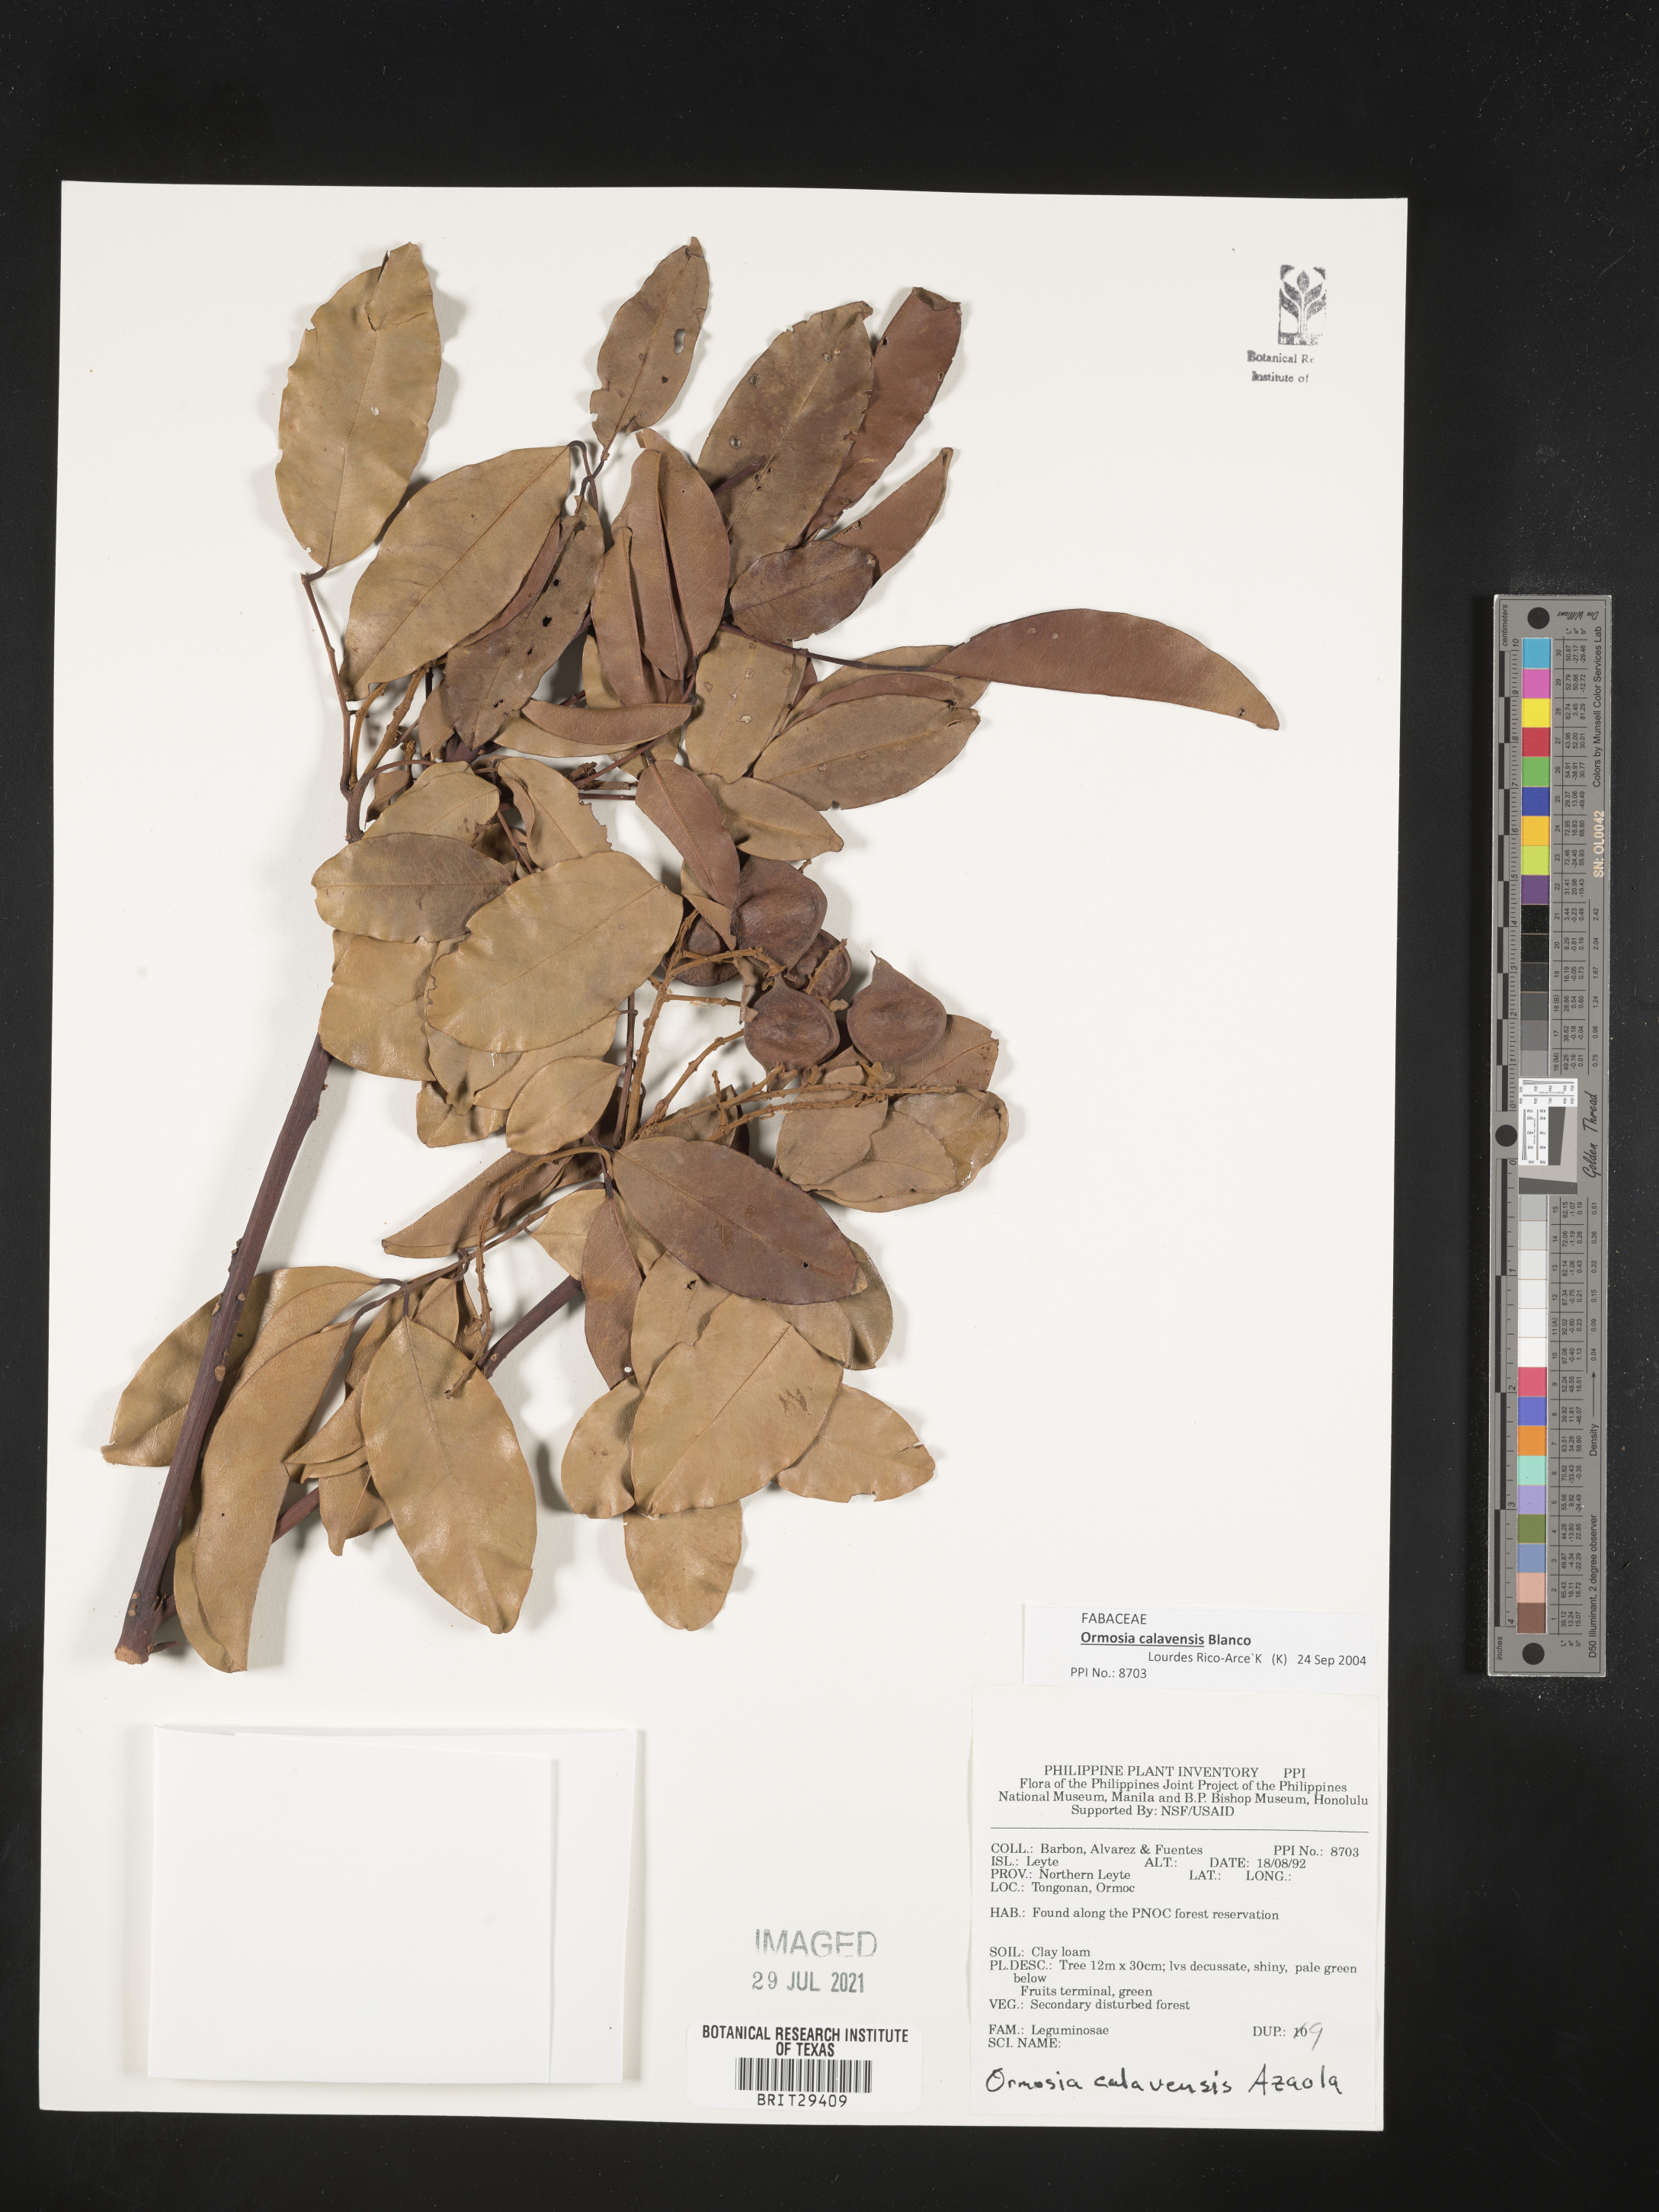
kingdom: Plantae
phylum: Tracheophyta
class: Magnoliopsida
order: Fabales
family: Fabaceae
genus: Ormosia
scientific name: Ormosia calavensis
